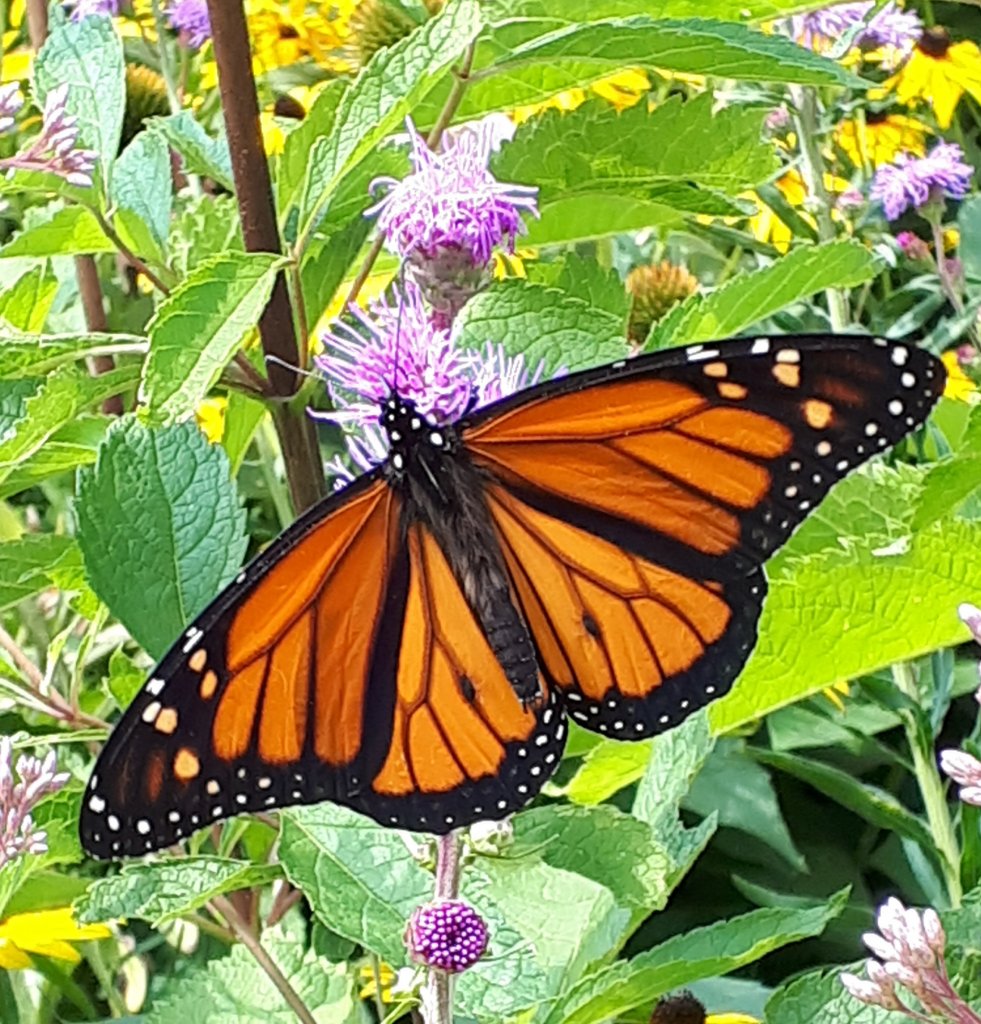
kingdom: Animalia
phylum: Arthropoda
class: Insecta
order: Lepidoptera
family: Nymphalidae
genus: Danaus
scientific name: Danaus plexippus
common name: Monarch
